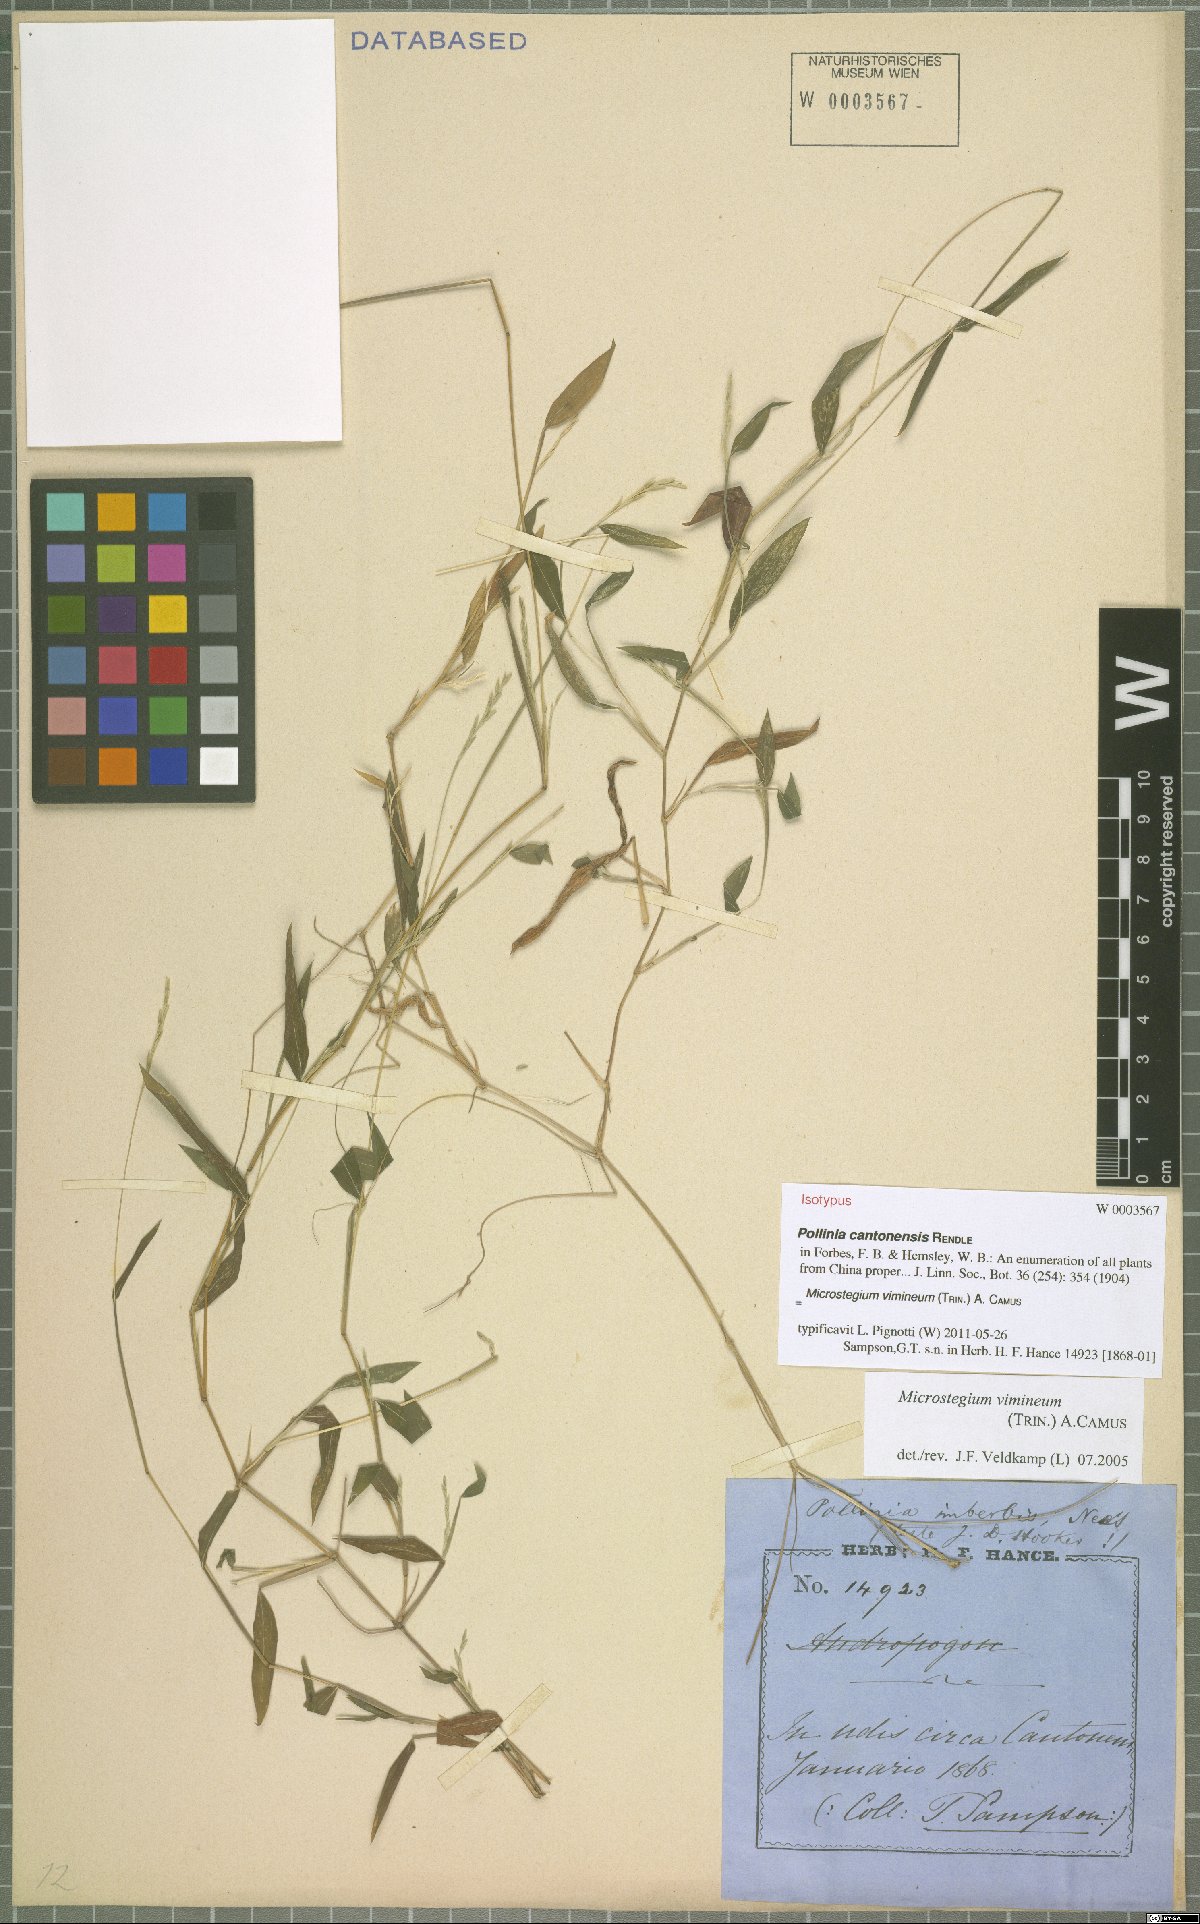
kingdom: Plantae
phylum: Tracheophyta
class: Liliopsida
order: Poales
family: Poaceae
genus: Microstegium
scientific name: Microstegium vimineum
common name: Japanese stiltgrass
